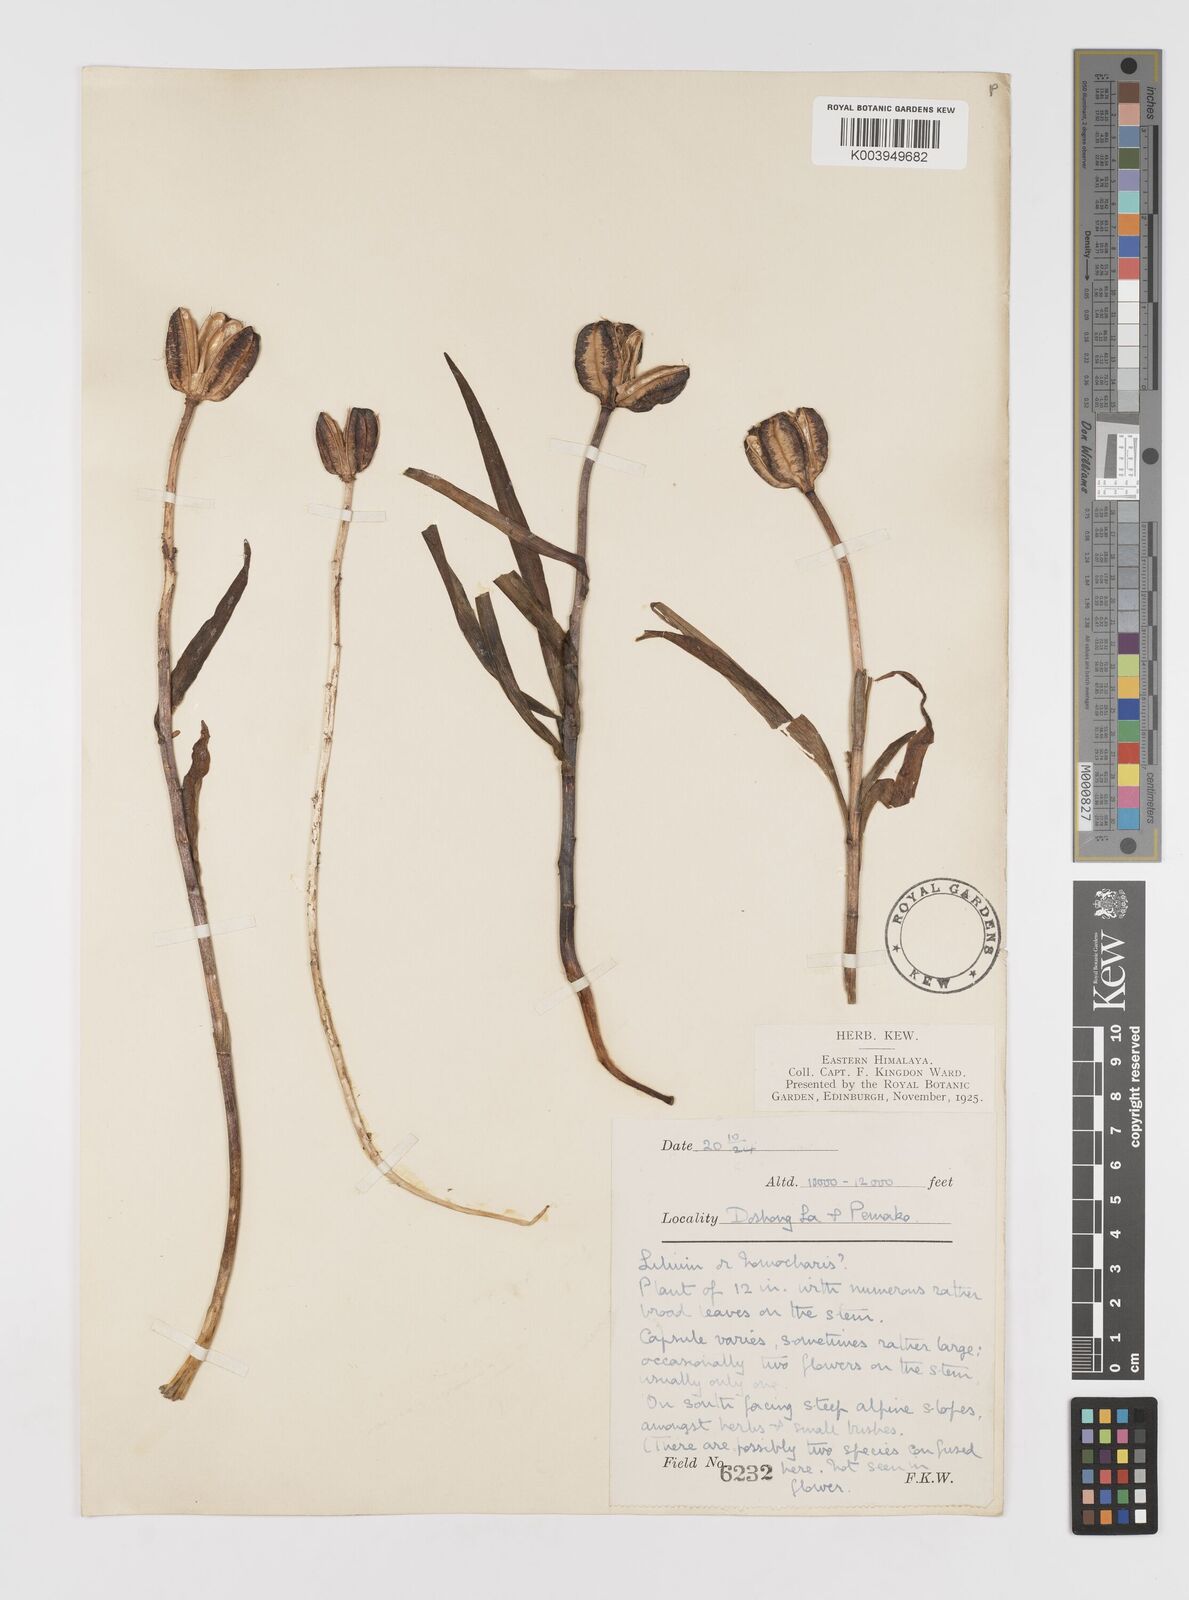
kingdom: Plantae
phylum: Tracheophyta
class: Liliopsida
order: Liliales
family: Liliaceae
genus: Lilium
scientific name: Lilium nanum
